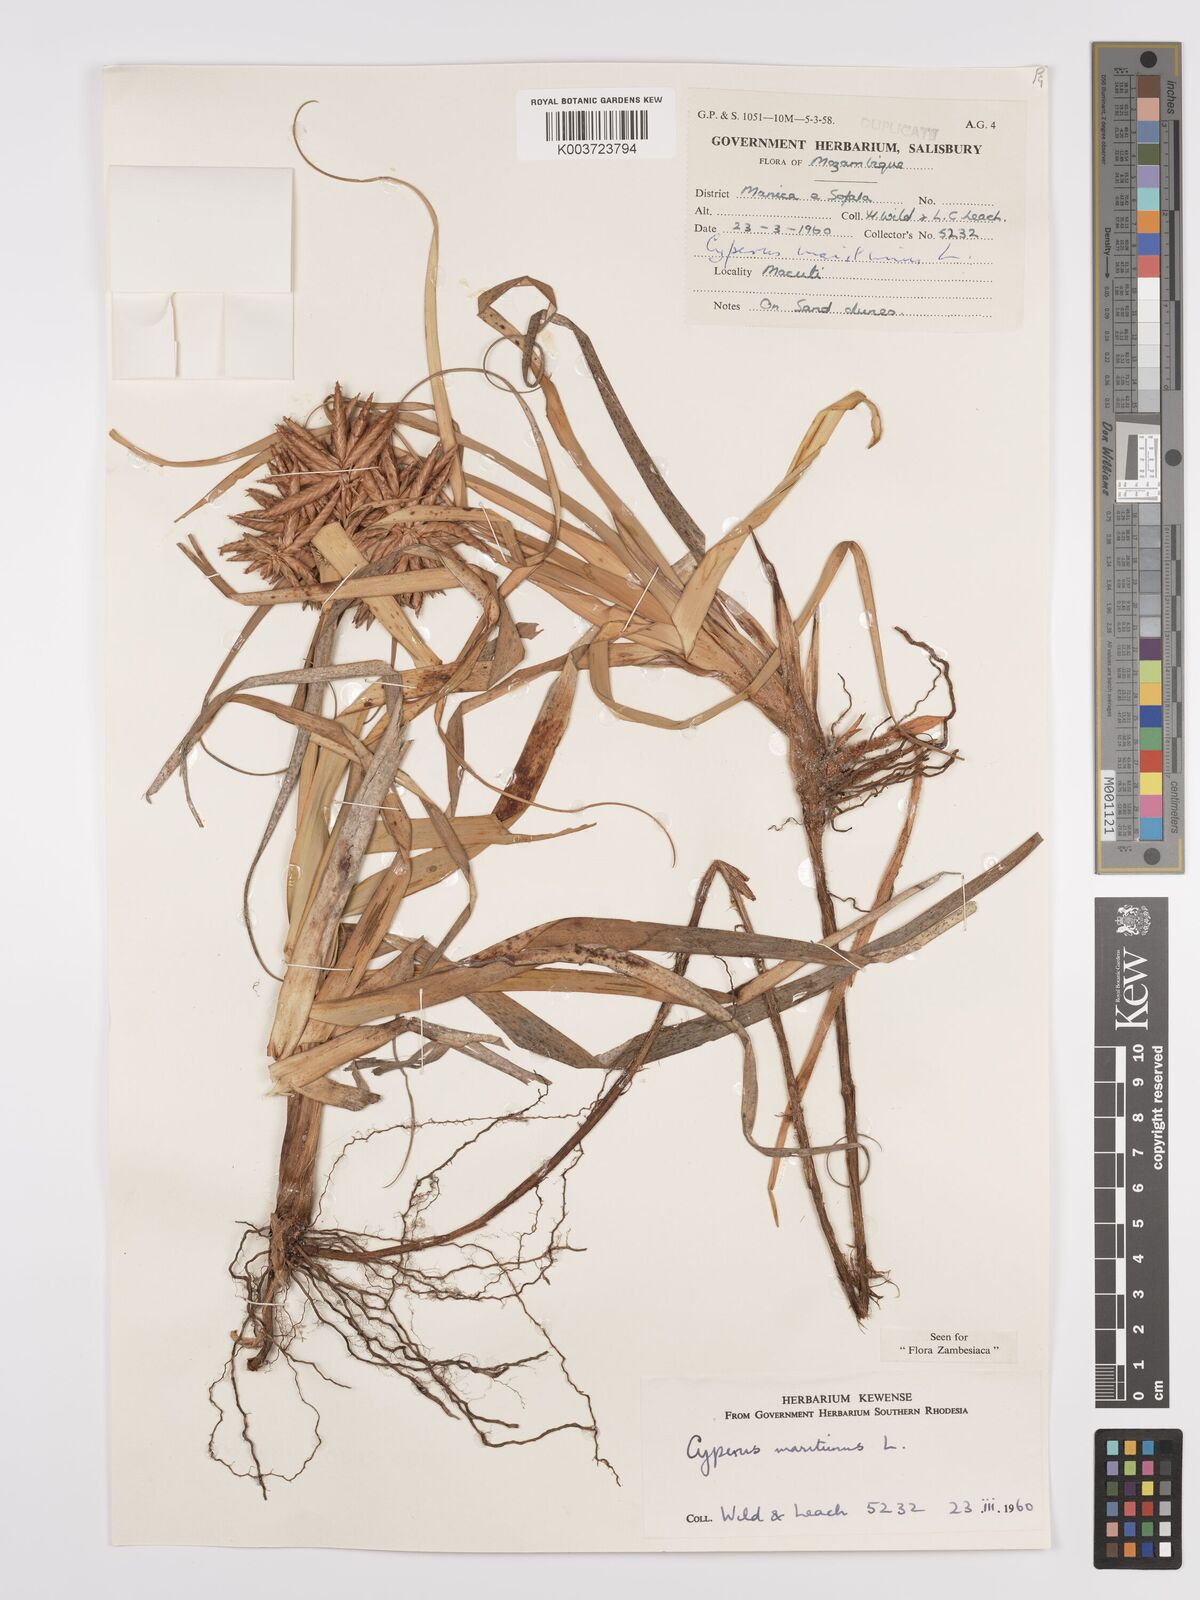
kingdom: Plantae
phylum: Tracheophyta
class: Liliopsida
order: Poales
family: Cyperaceae
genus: Cyperus
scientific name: Cyperus crassipes
